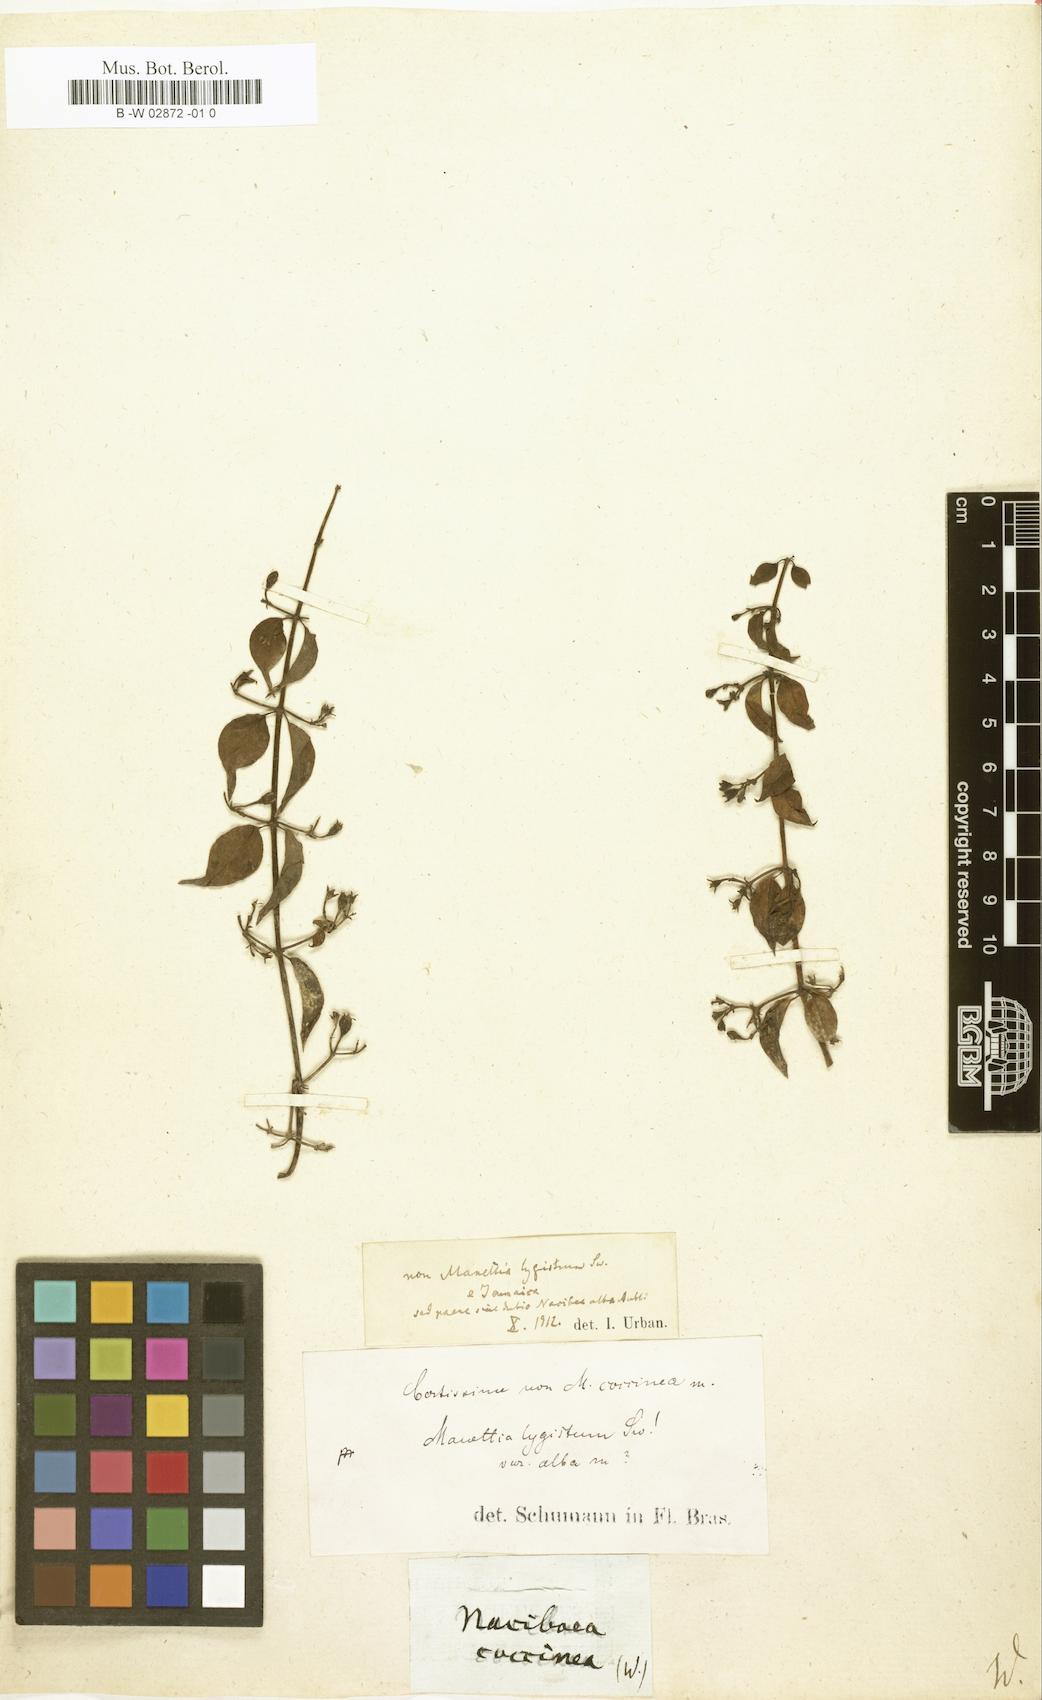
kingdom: Plantae
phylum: Tracheophyta
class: Magnoliopsida
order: Gentianales
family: Rubiaceae
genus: Manettia
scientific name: Manettia coccinea
